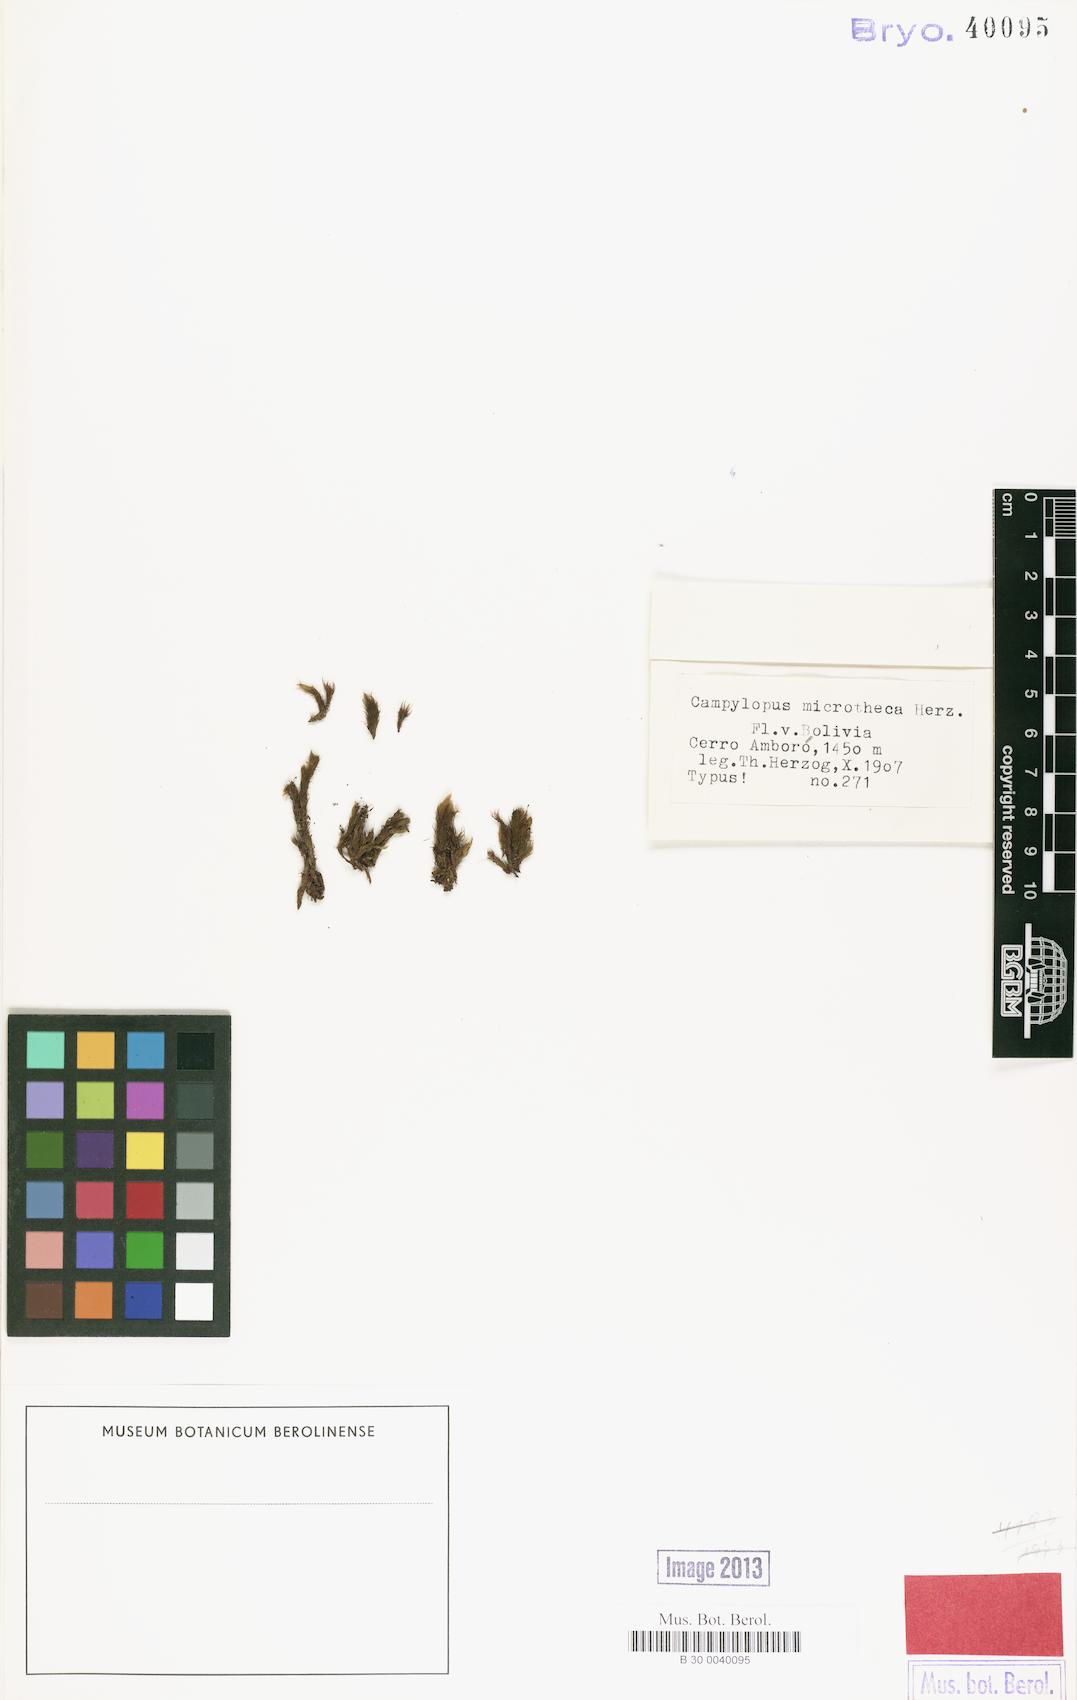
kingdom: Plantae
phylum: Bryophyta
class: Bryopsida
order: Dicranales
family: Leucobryaceae
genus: Campylopus
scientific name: Campylopus arctocarpus
